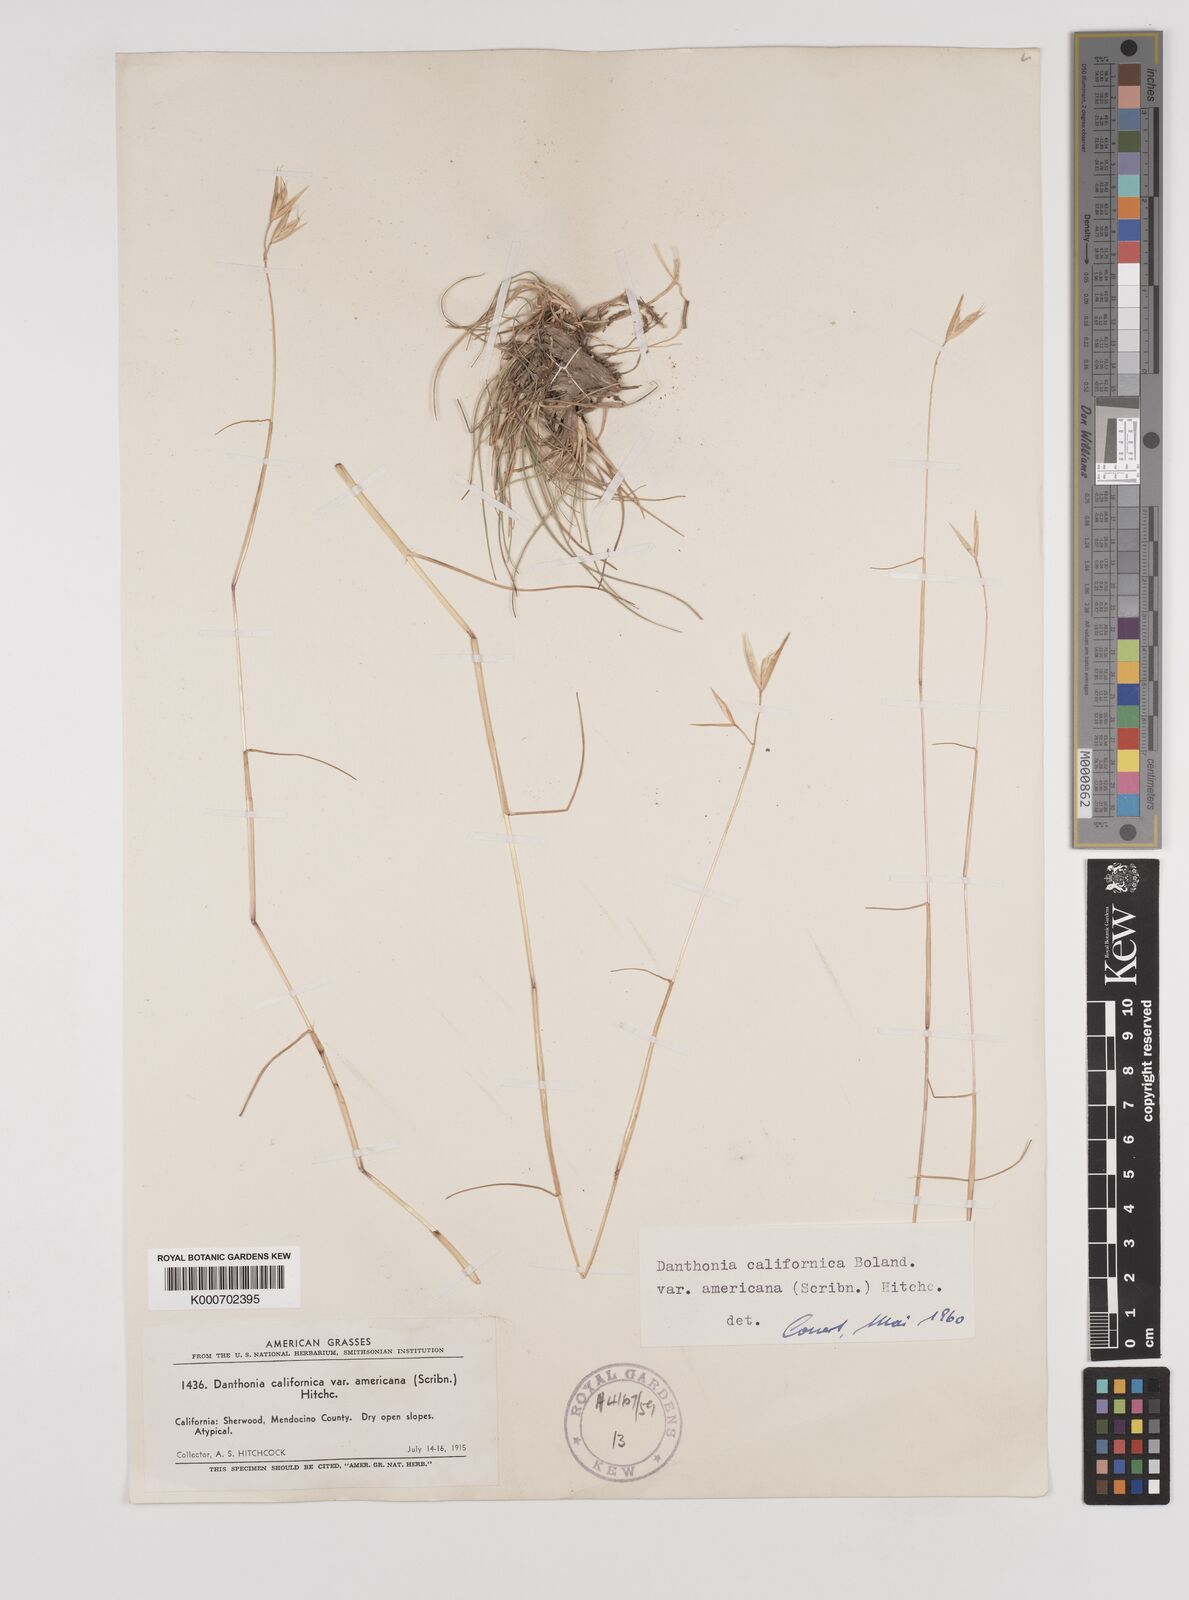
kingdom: Plantae
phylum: Tracheophyta
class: Liliopsida
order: Poales
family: Poaceae
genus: Danthonia
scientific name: Danthonia californica
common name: California oat grass
